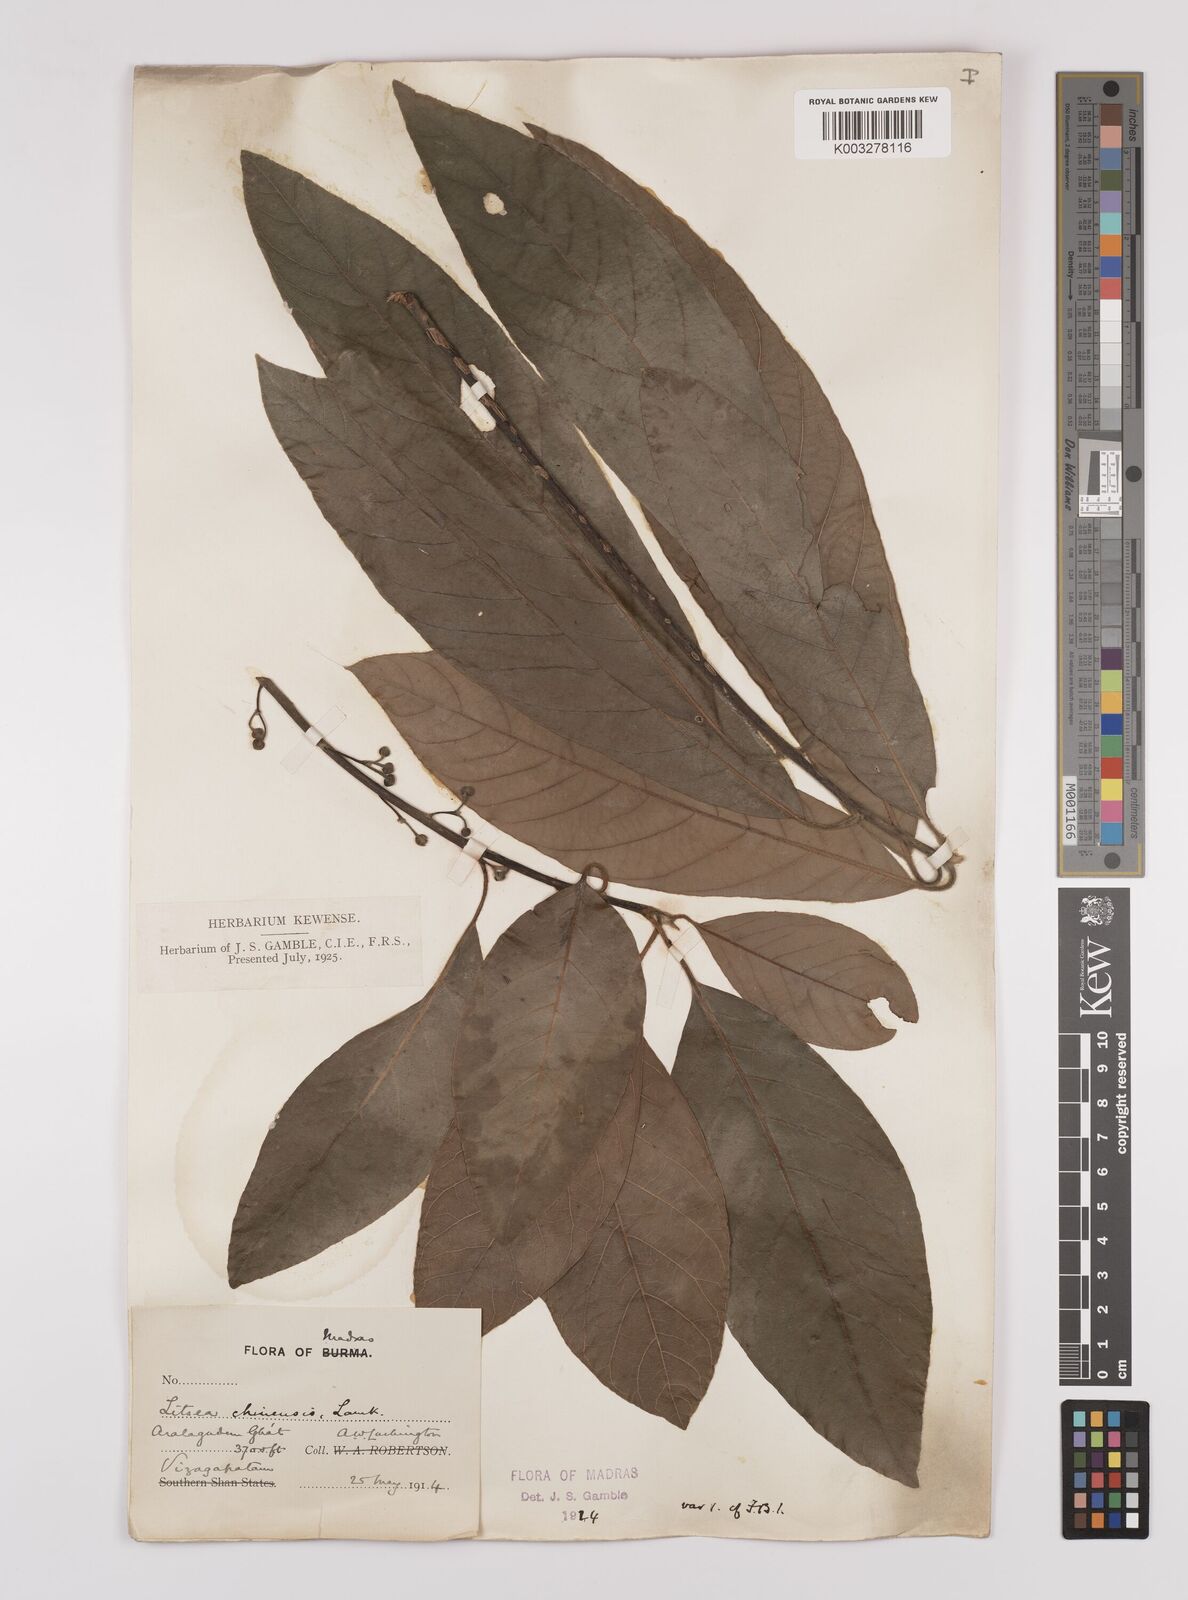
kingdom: Plantae
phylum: Tracheophyta
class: Magnoliopsida
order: Laurales
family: Lauraceae
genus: Litsea
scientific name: Litsea
